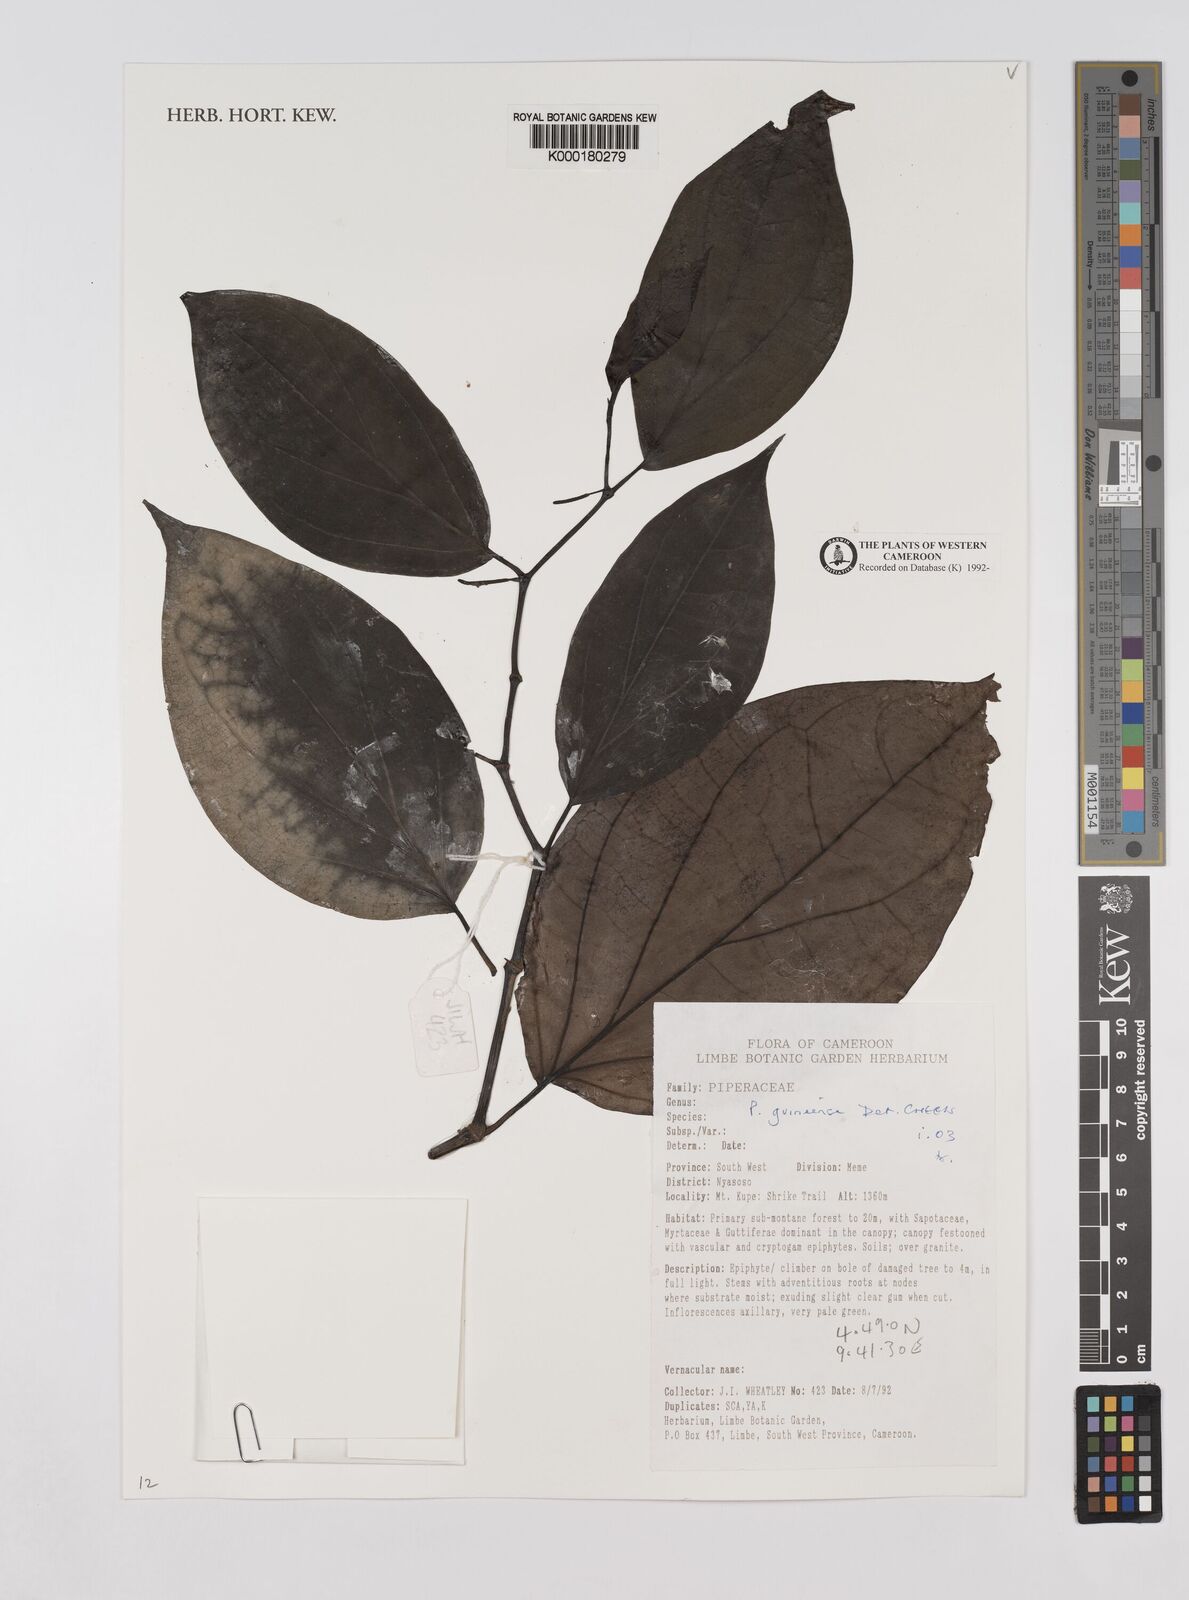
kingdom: Plantae
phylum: Tracheophyta
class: Magnoliopsida
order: Piperales
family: Piperaceae
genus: Piper
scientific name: Piper guineense
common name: Benin pepper
